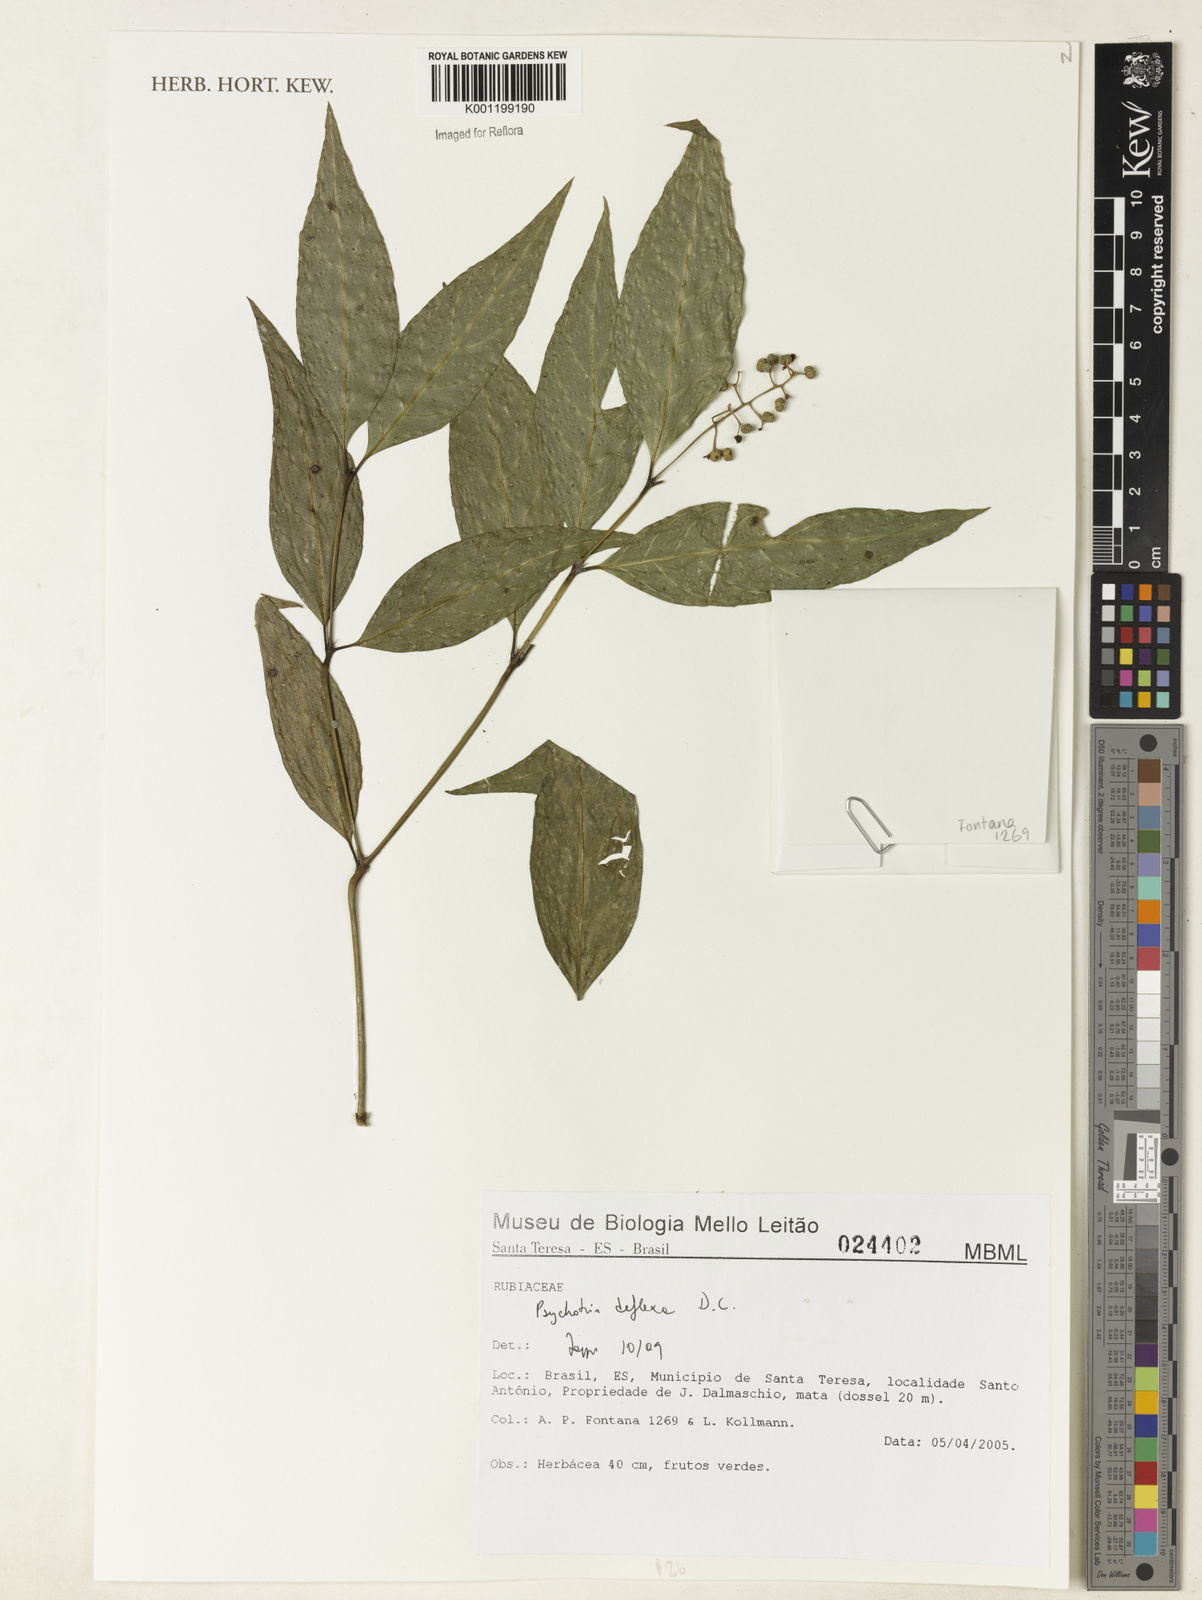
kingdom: Plantae
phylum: Tracheophyta
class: Magnoliopsida
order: Gentianales
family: Rubiaceae
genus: Palicourea
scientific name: Palicourea deflexa
